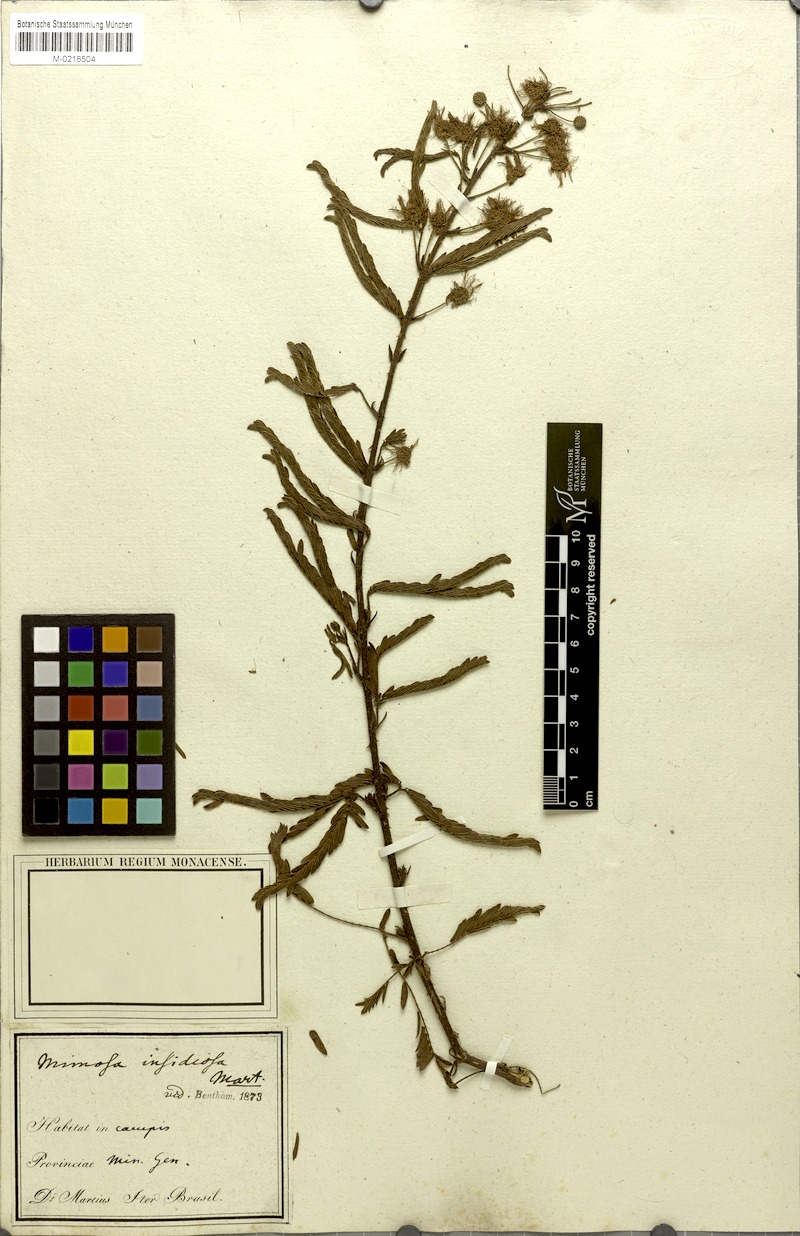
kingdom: Plantae
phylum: Tracheophyta
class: Magnoliopsida
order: Fabales
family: Fabaceae
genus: Mimosa
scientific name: Mimosa insidiosa
